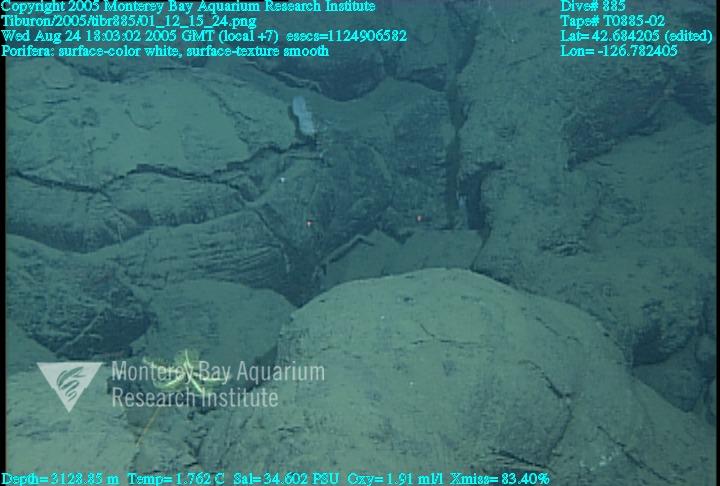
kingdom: Animalia
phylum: Porifera
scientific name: Porifera
